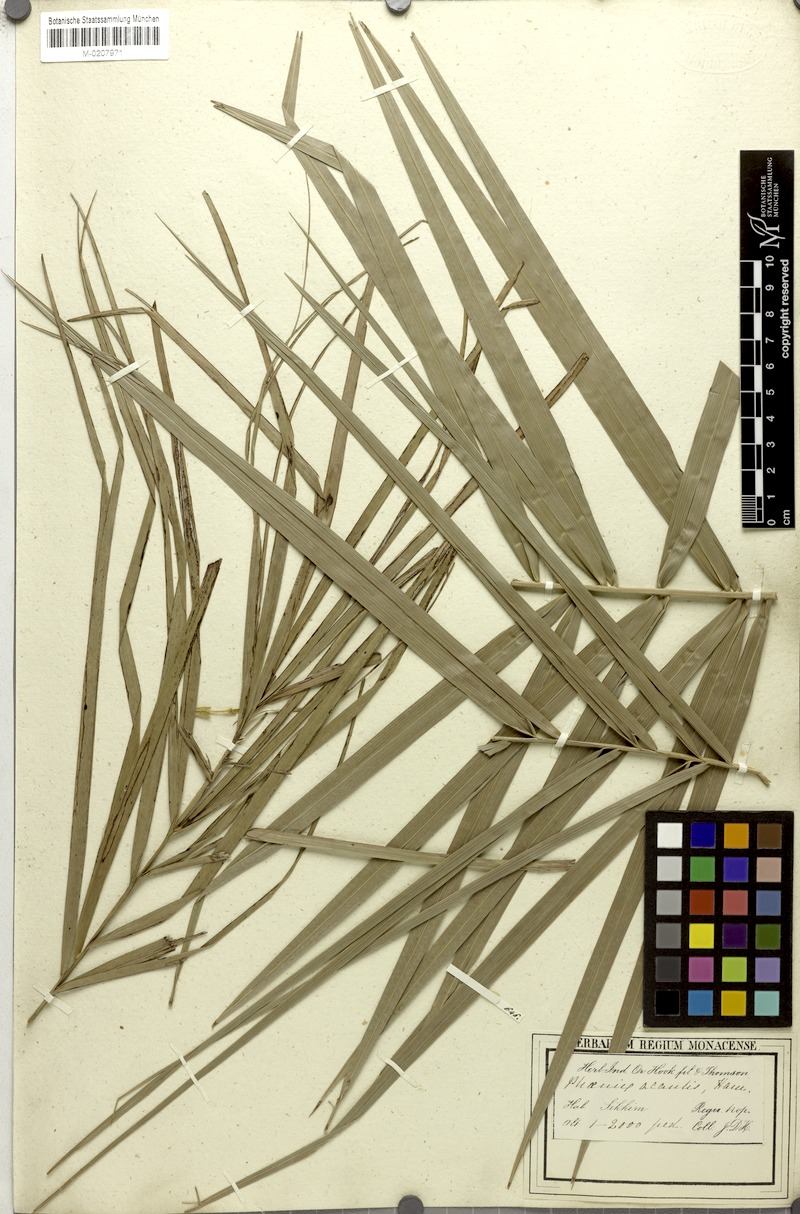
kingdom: Plantae
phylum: Tracheophyta
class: Liliopsida
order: Arecales
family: Arecaceae
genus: Phoenix
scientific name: Phoenix acaulis
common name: Stemless date palm
